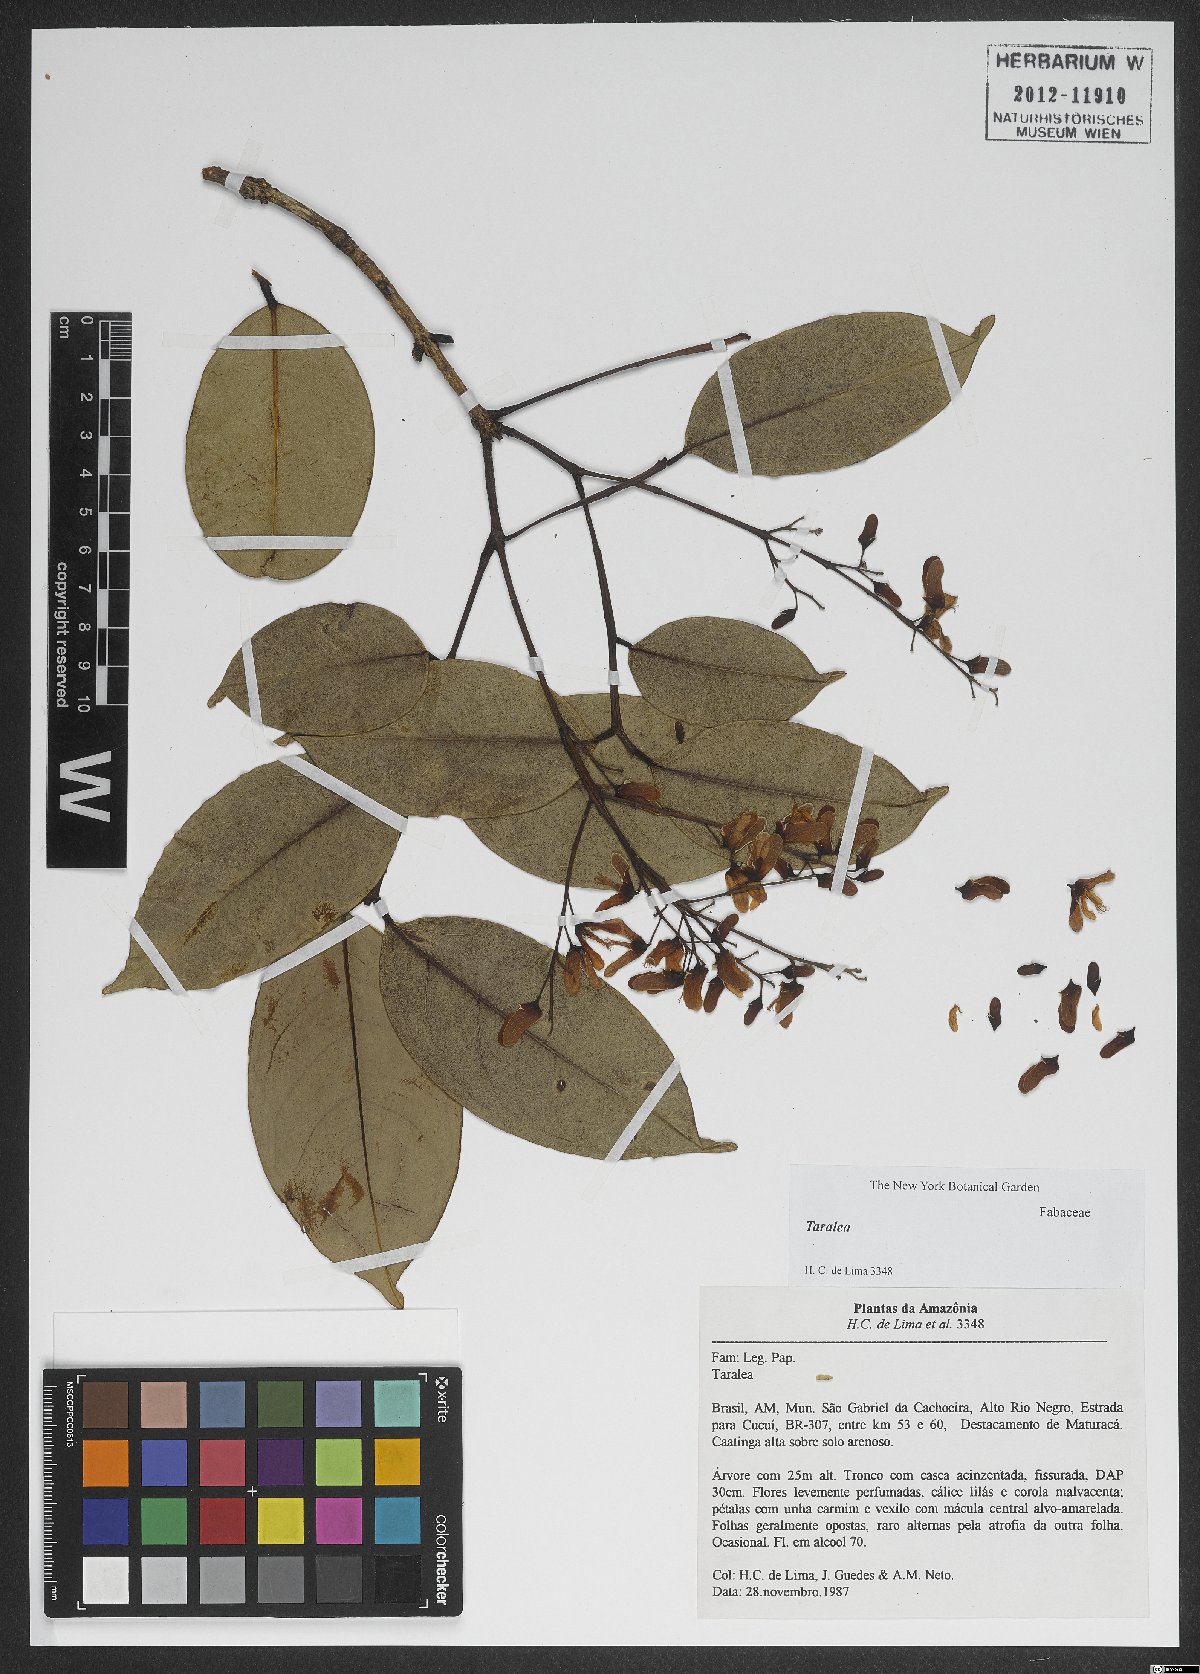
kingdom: Plantae
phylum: Tracheophyta
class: Magnoliopsida
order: Fabales
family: Fabaceae
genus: Taralea
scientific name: Taralea
